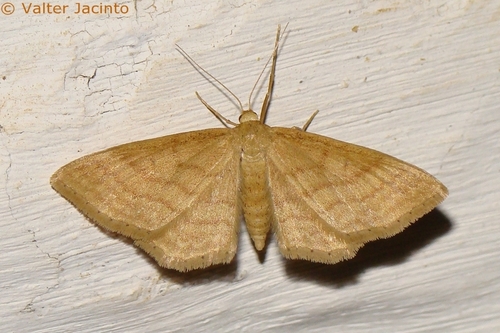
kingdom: Animalia
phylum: Arthropoda
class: Insecta
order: Lepidoptera
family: Geometridae
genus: Idaea
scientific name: Idaea ochrata
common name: Bright wave
